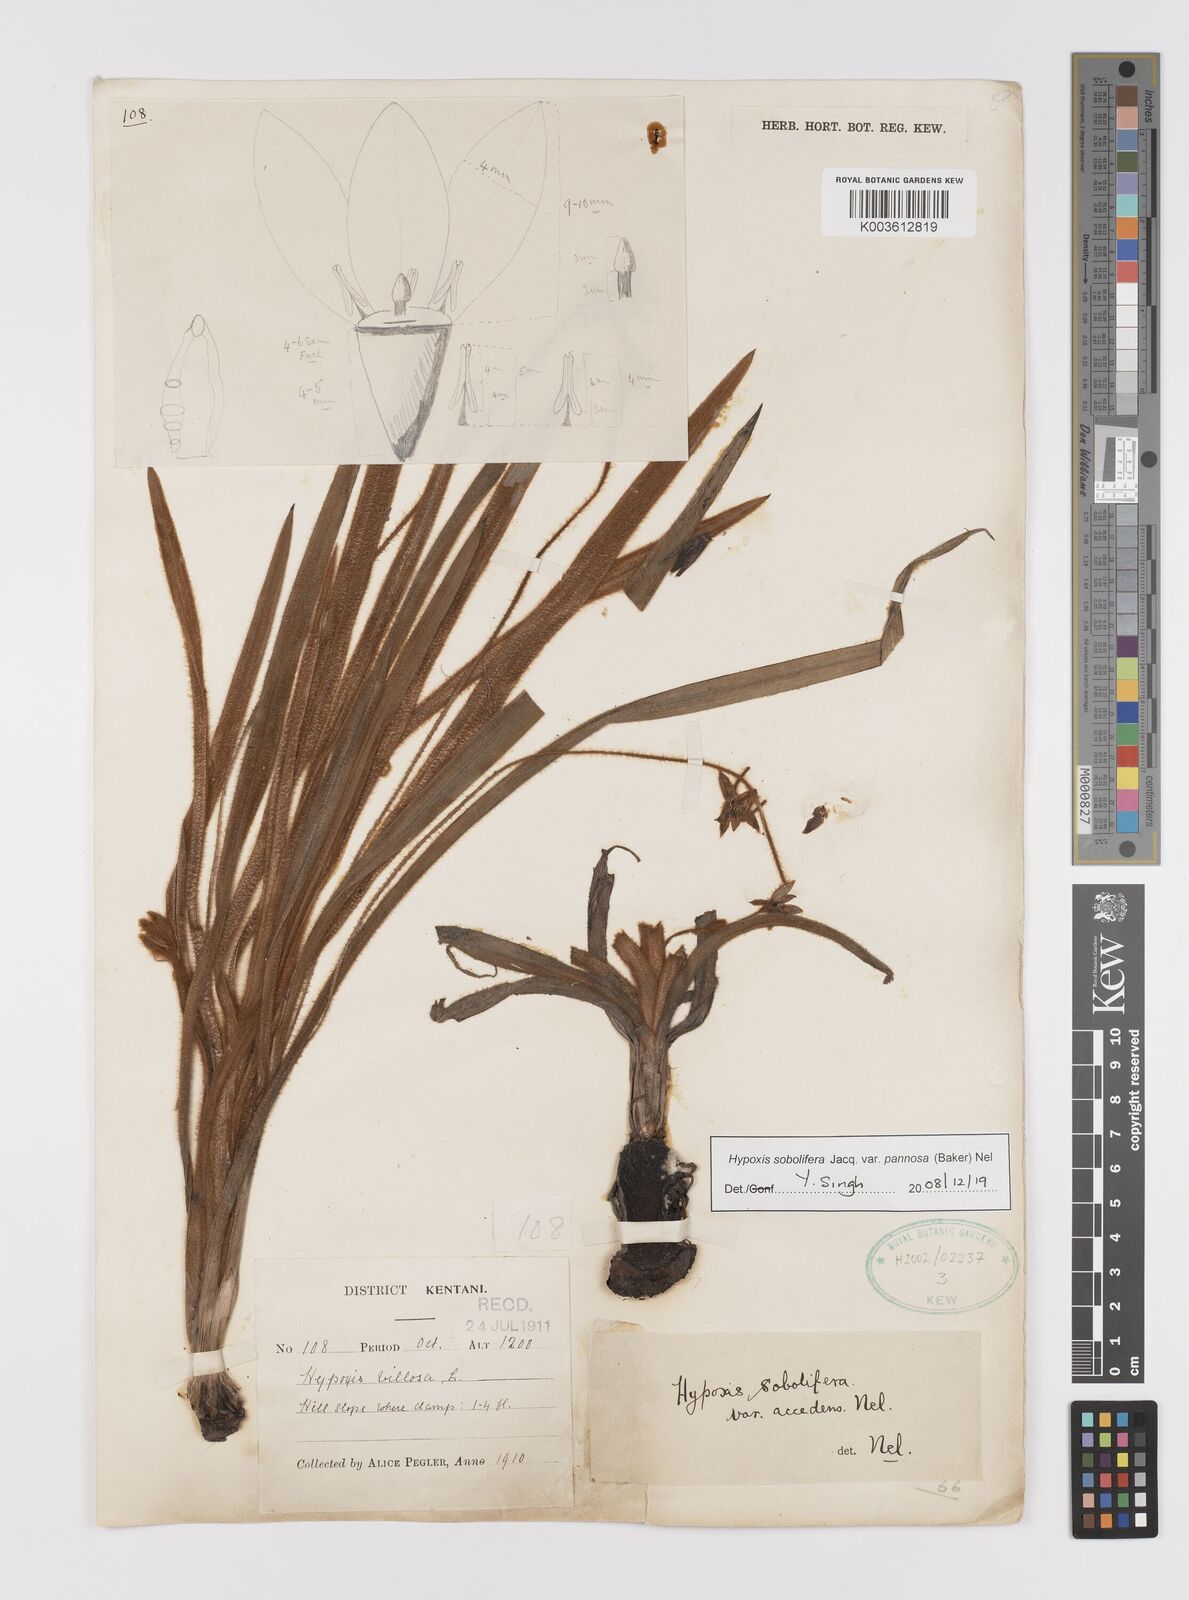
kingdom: Plantae
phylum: Tracheophyta
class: Liliopsida
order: Asparagales
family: Hypoxidaceae
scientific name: Hypoxidaceae
